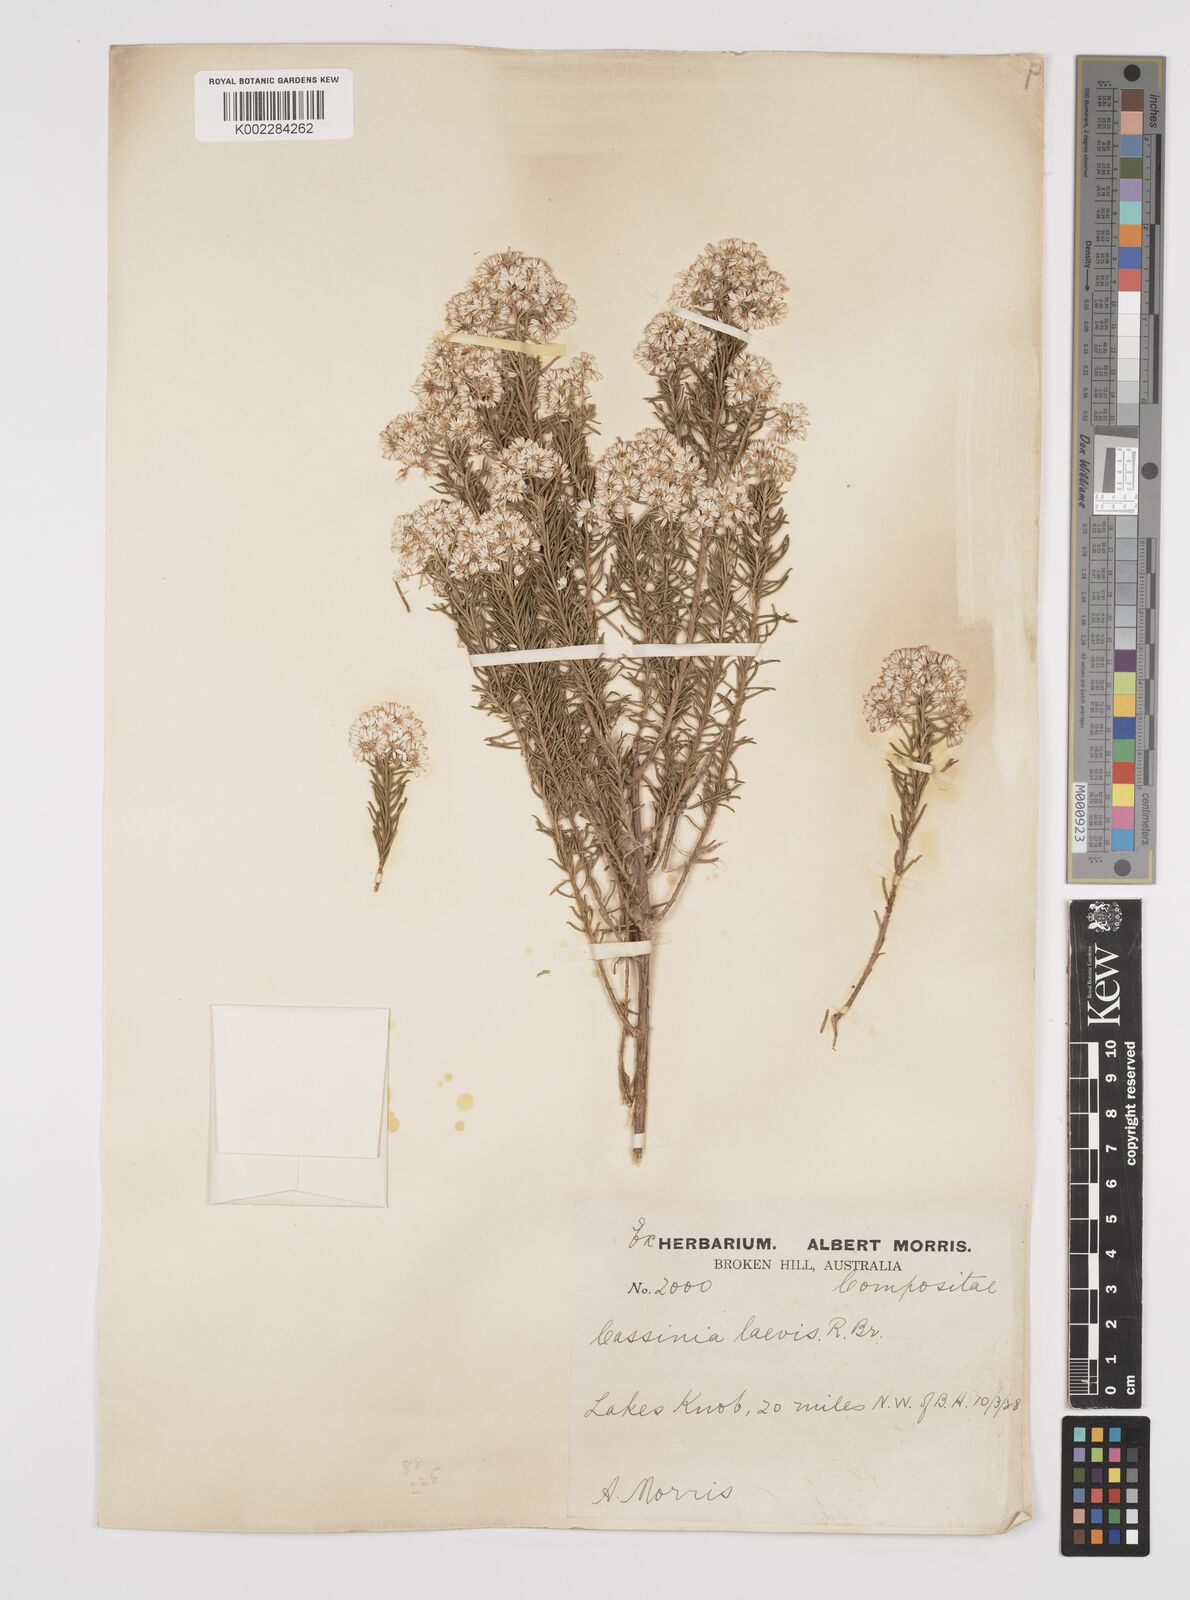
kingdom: Plantae
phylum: Tracheophyta
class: Magnoliopsida
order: Asterales
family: Asteraceae
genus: Cassinia
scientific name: Cassinia laevis
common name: Coughbush
